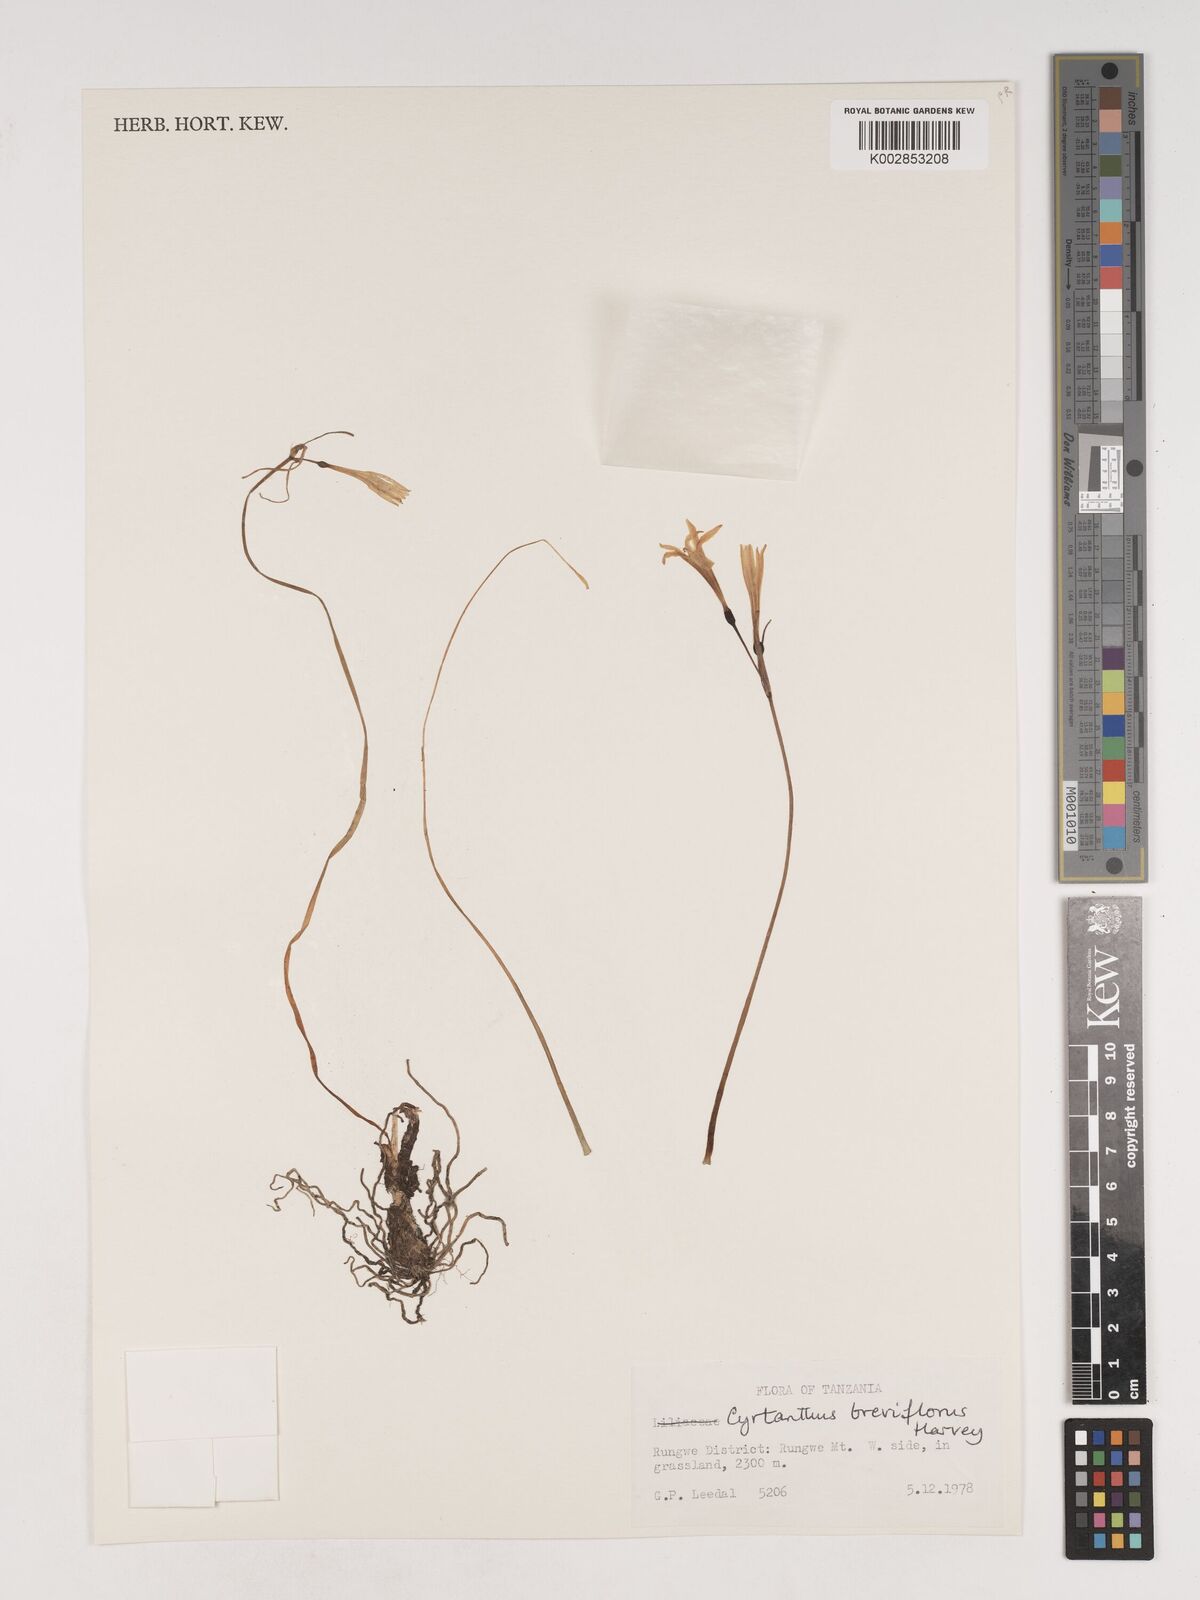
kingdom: Plantae
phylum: Tracheophyta
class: Liliopsida
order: Asparagales
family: Amaryllidaceae
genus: Cyrtanthus
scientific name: Cyrtanthus breviflorus
